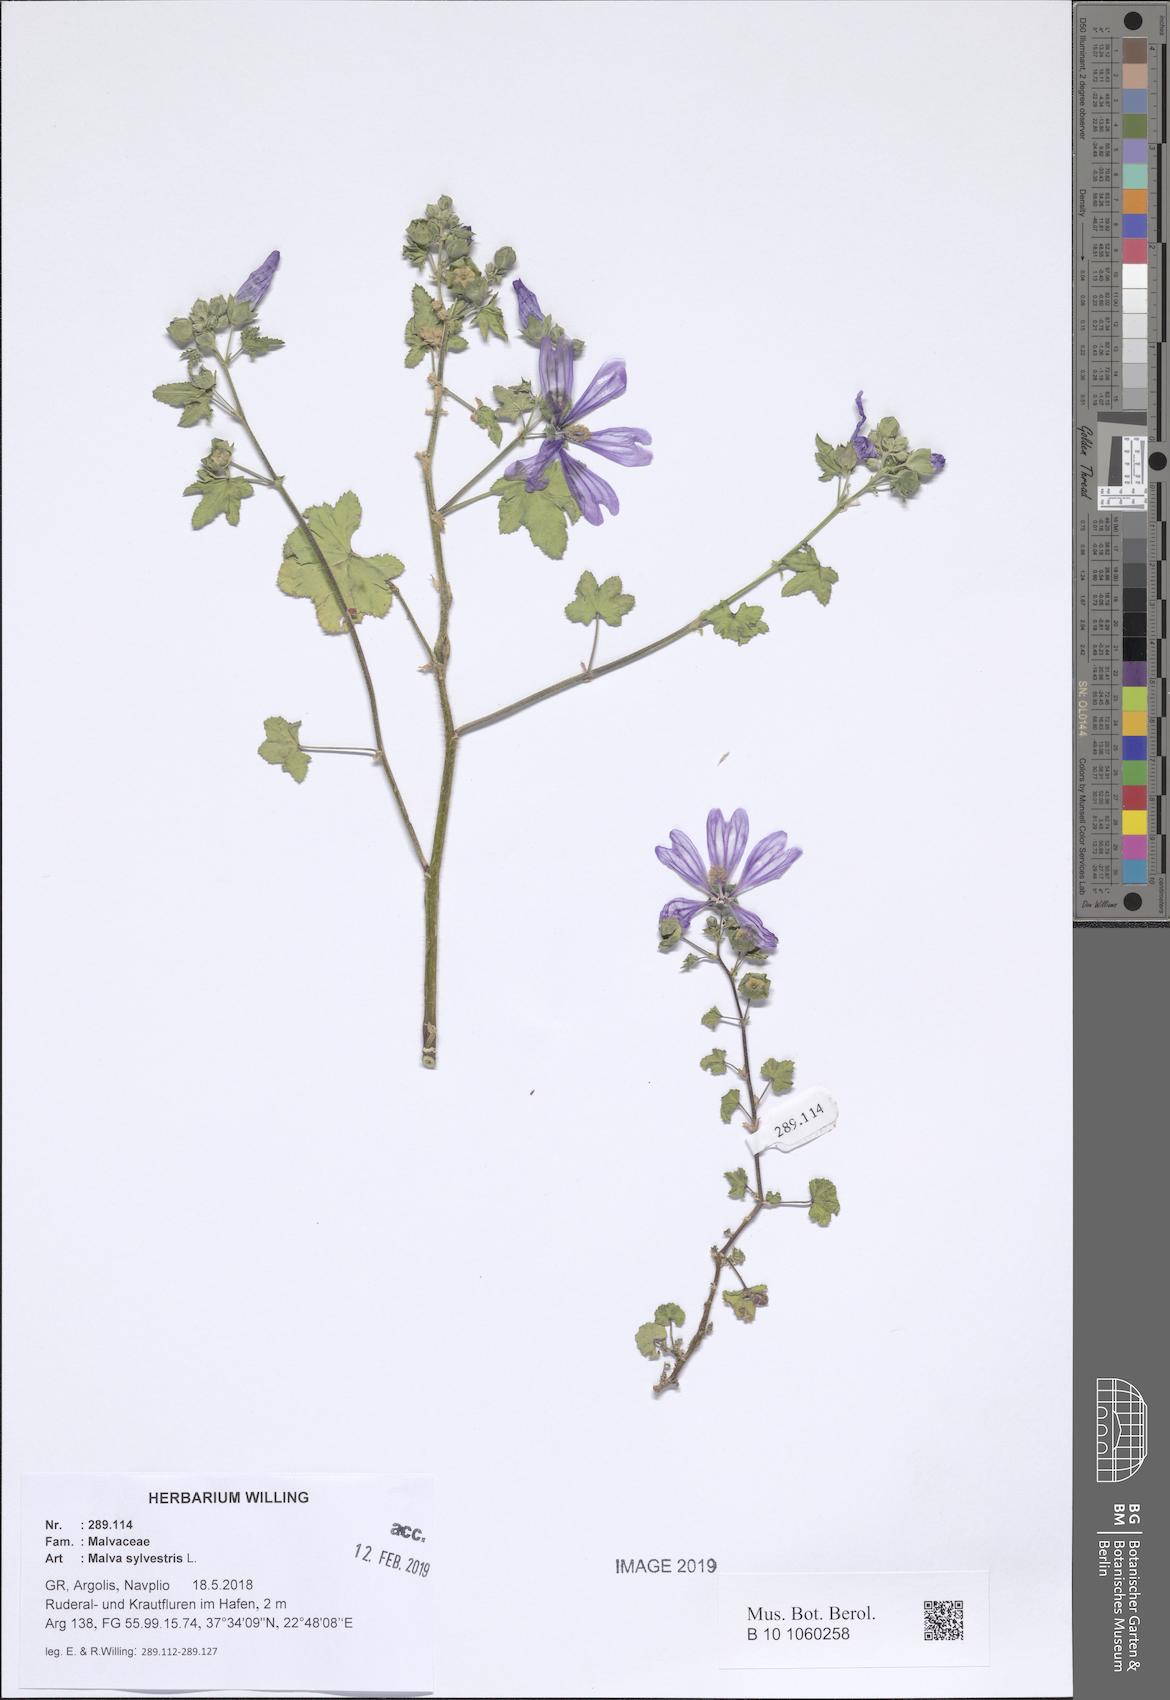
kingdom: Plantae
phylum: Tracheophyta
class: Magnoliopsida
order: Malvales
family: Malvaceae
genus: Malva
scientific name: Malva sylvestris
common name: Common mallow
